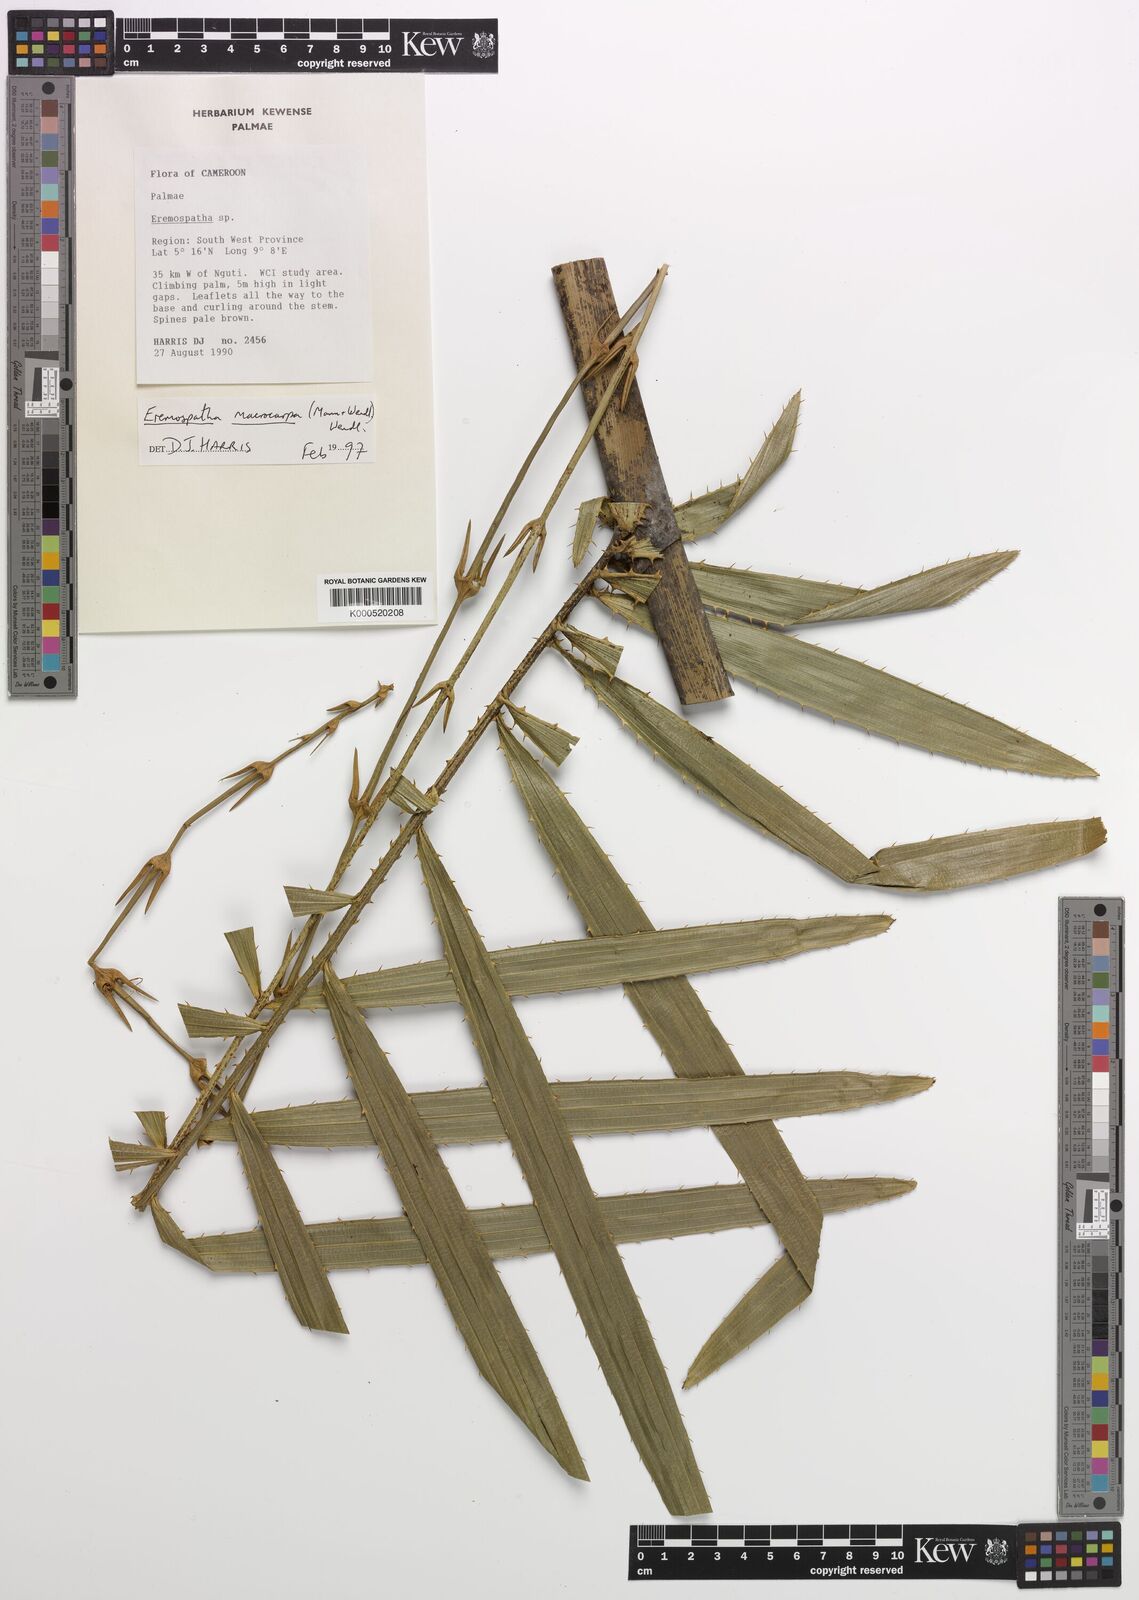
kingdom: Plantae
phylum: Tracheophyta
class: Liliopsida
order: Arecales
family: Arecaceae
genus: Eremospatha
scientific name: Eremospatha
